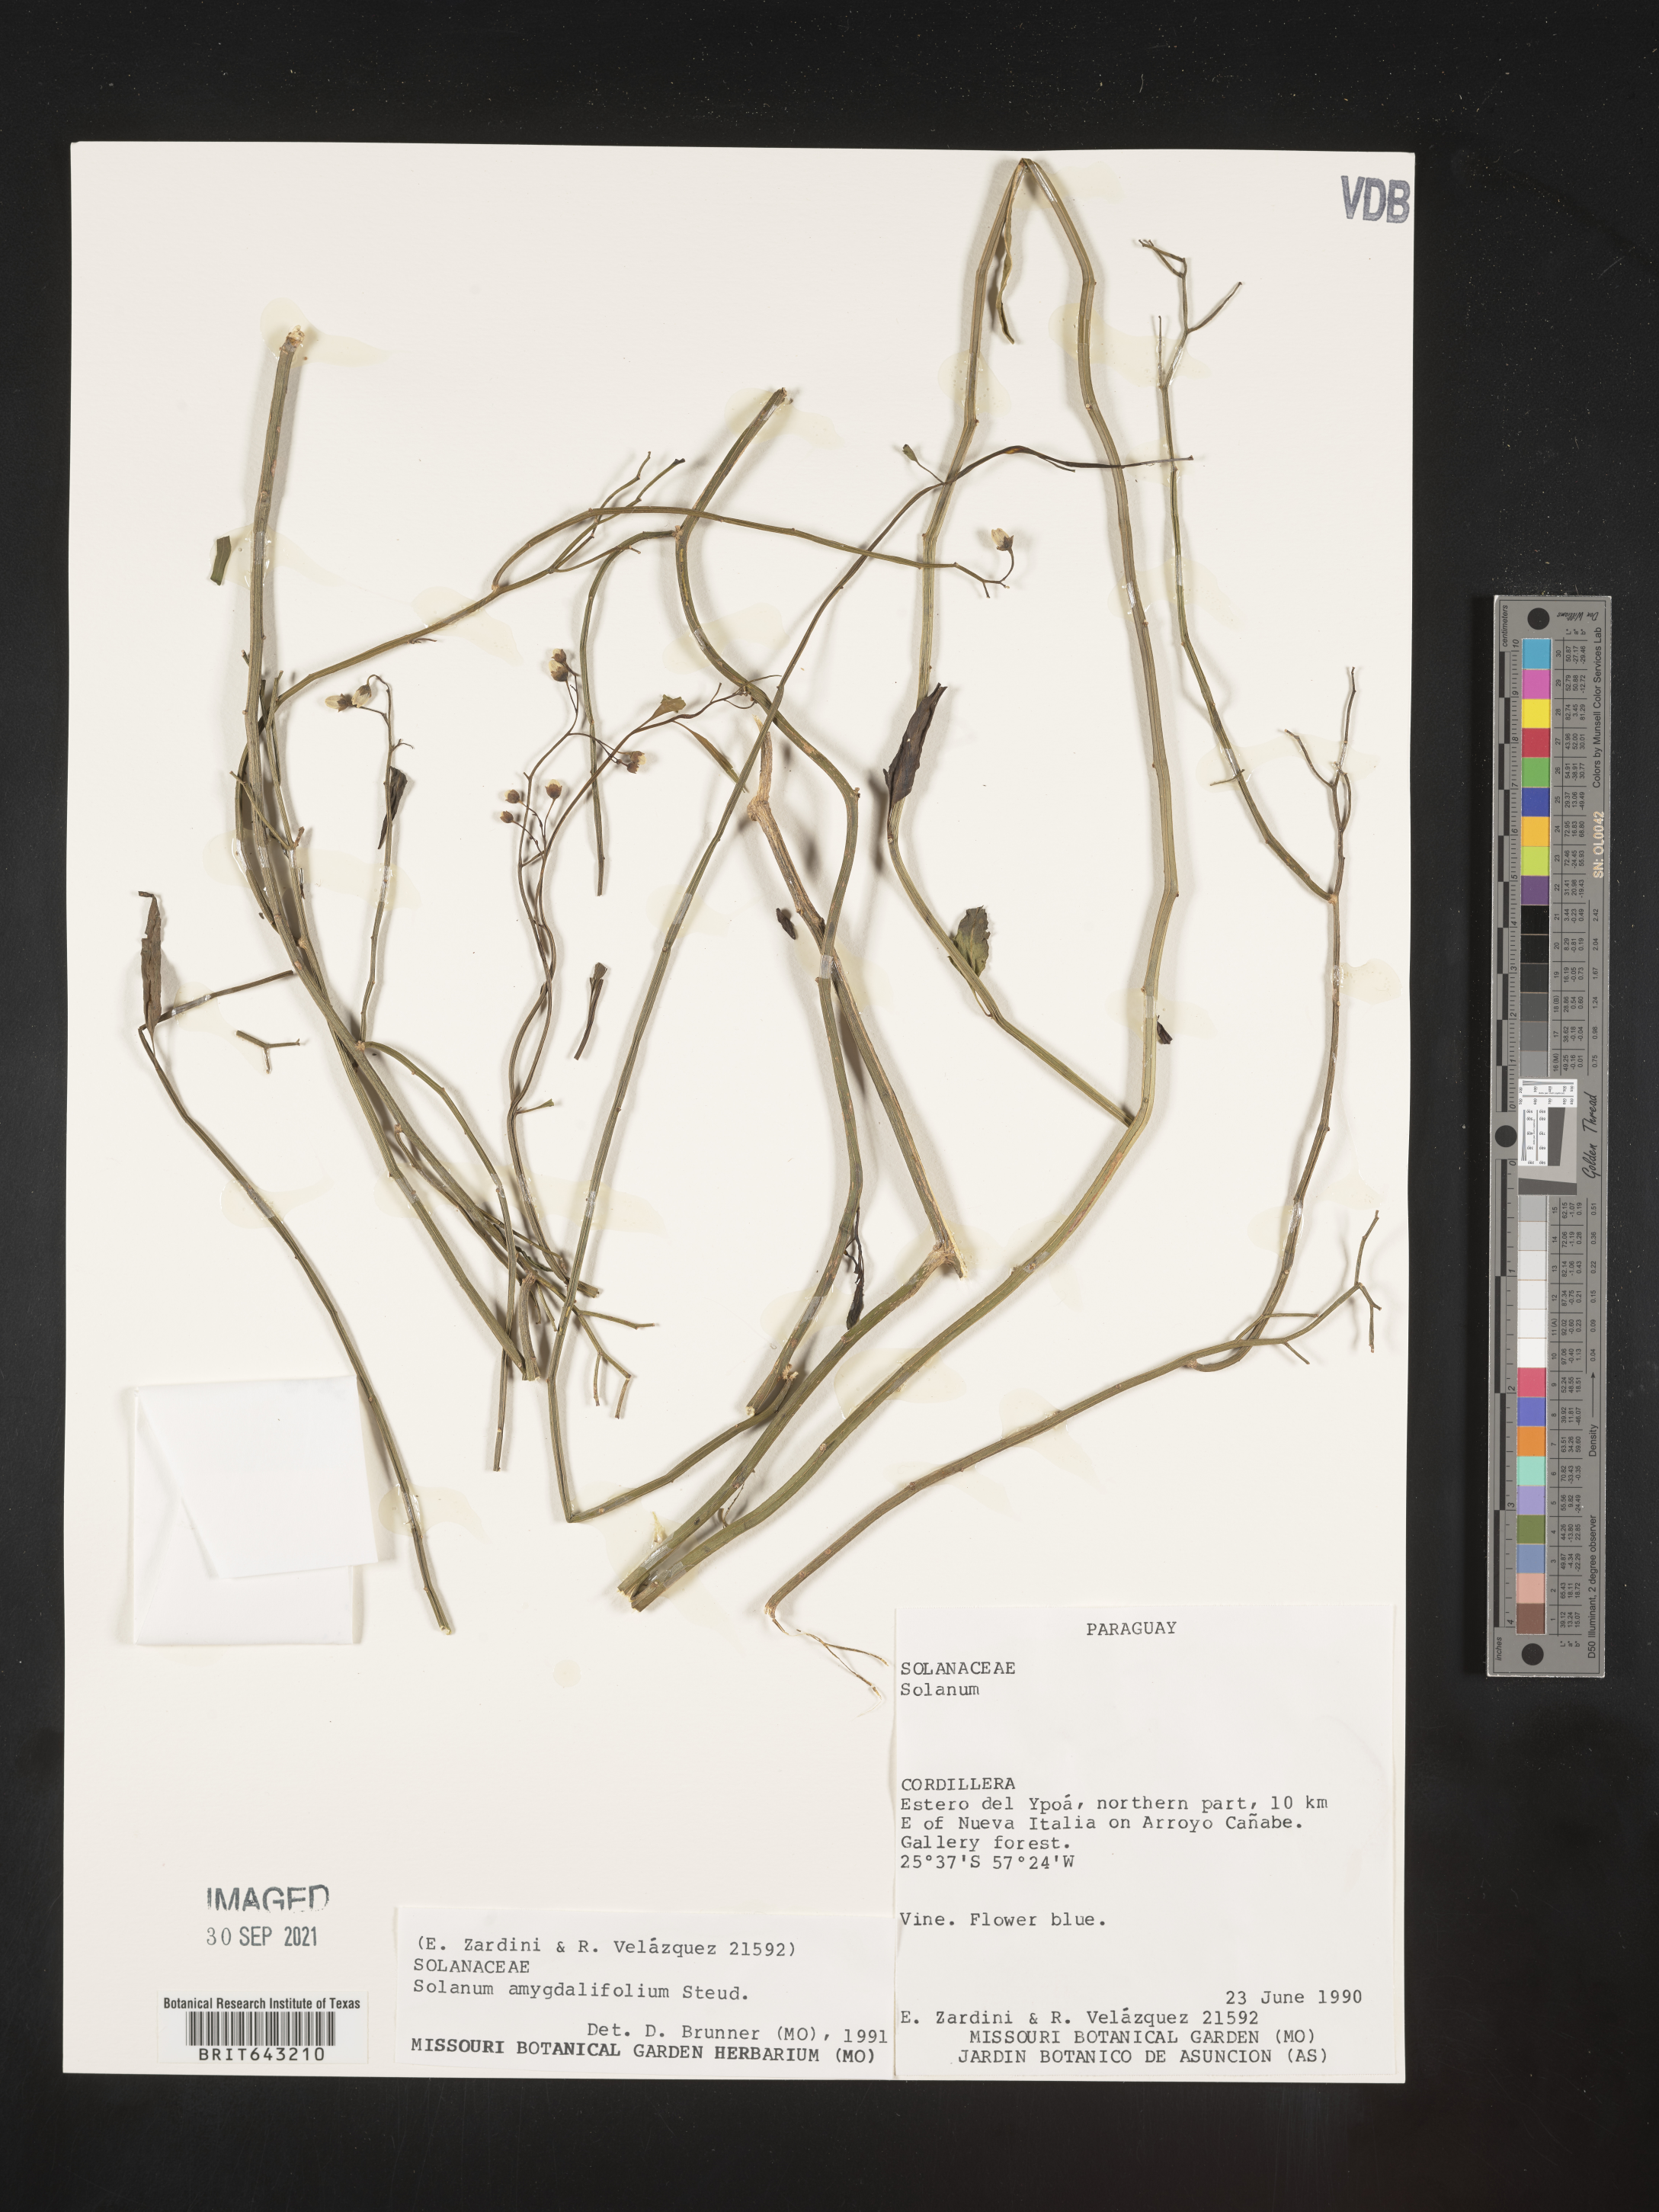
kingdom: Plantae
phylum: Tracheophyta
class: Magnoliopsida
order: Solanales
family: Solanaceae
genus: Solanum
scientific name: Solanum
